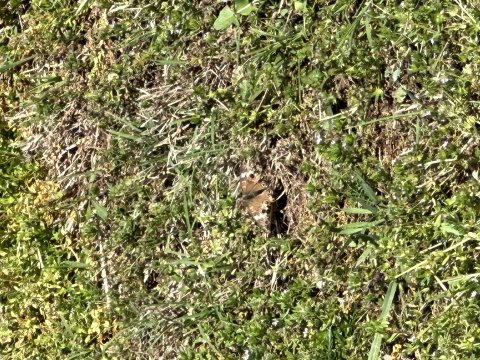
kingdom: Animalia
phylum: Arthropoda
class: Insecta
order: Lepidoptera
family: Nymphalidae
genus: Junonia
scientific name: Junonia coenia
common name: Common Buckeye
